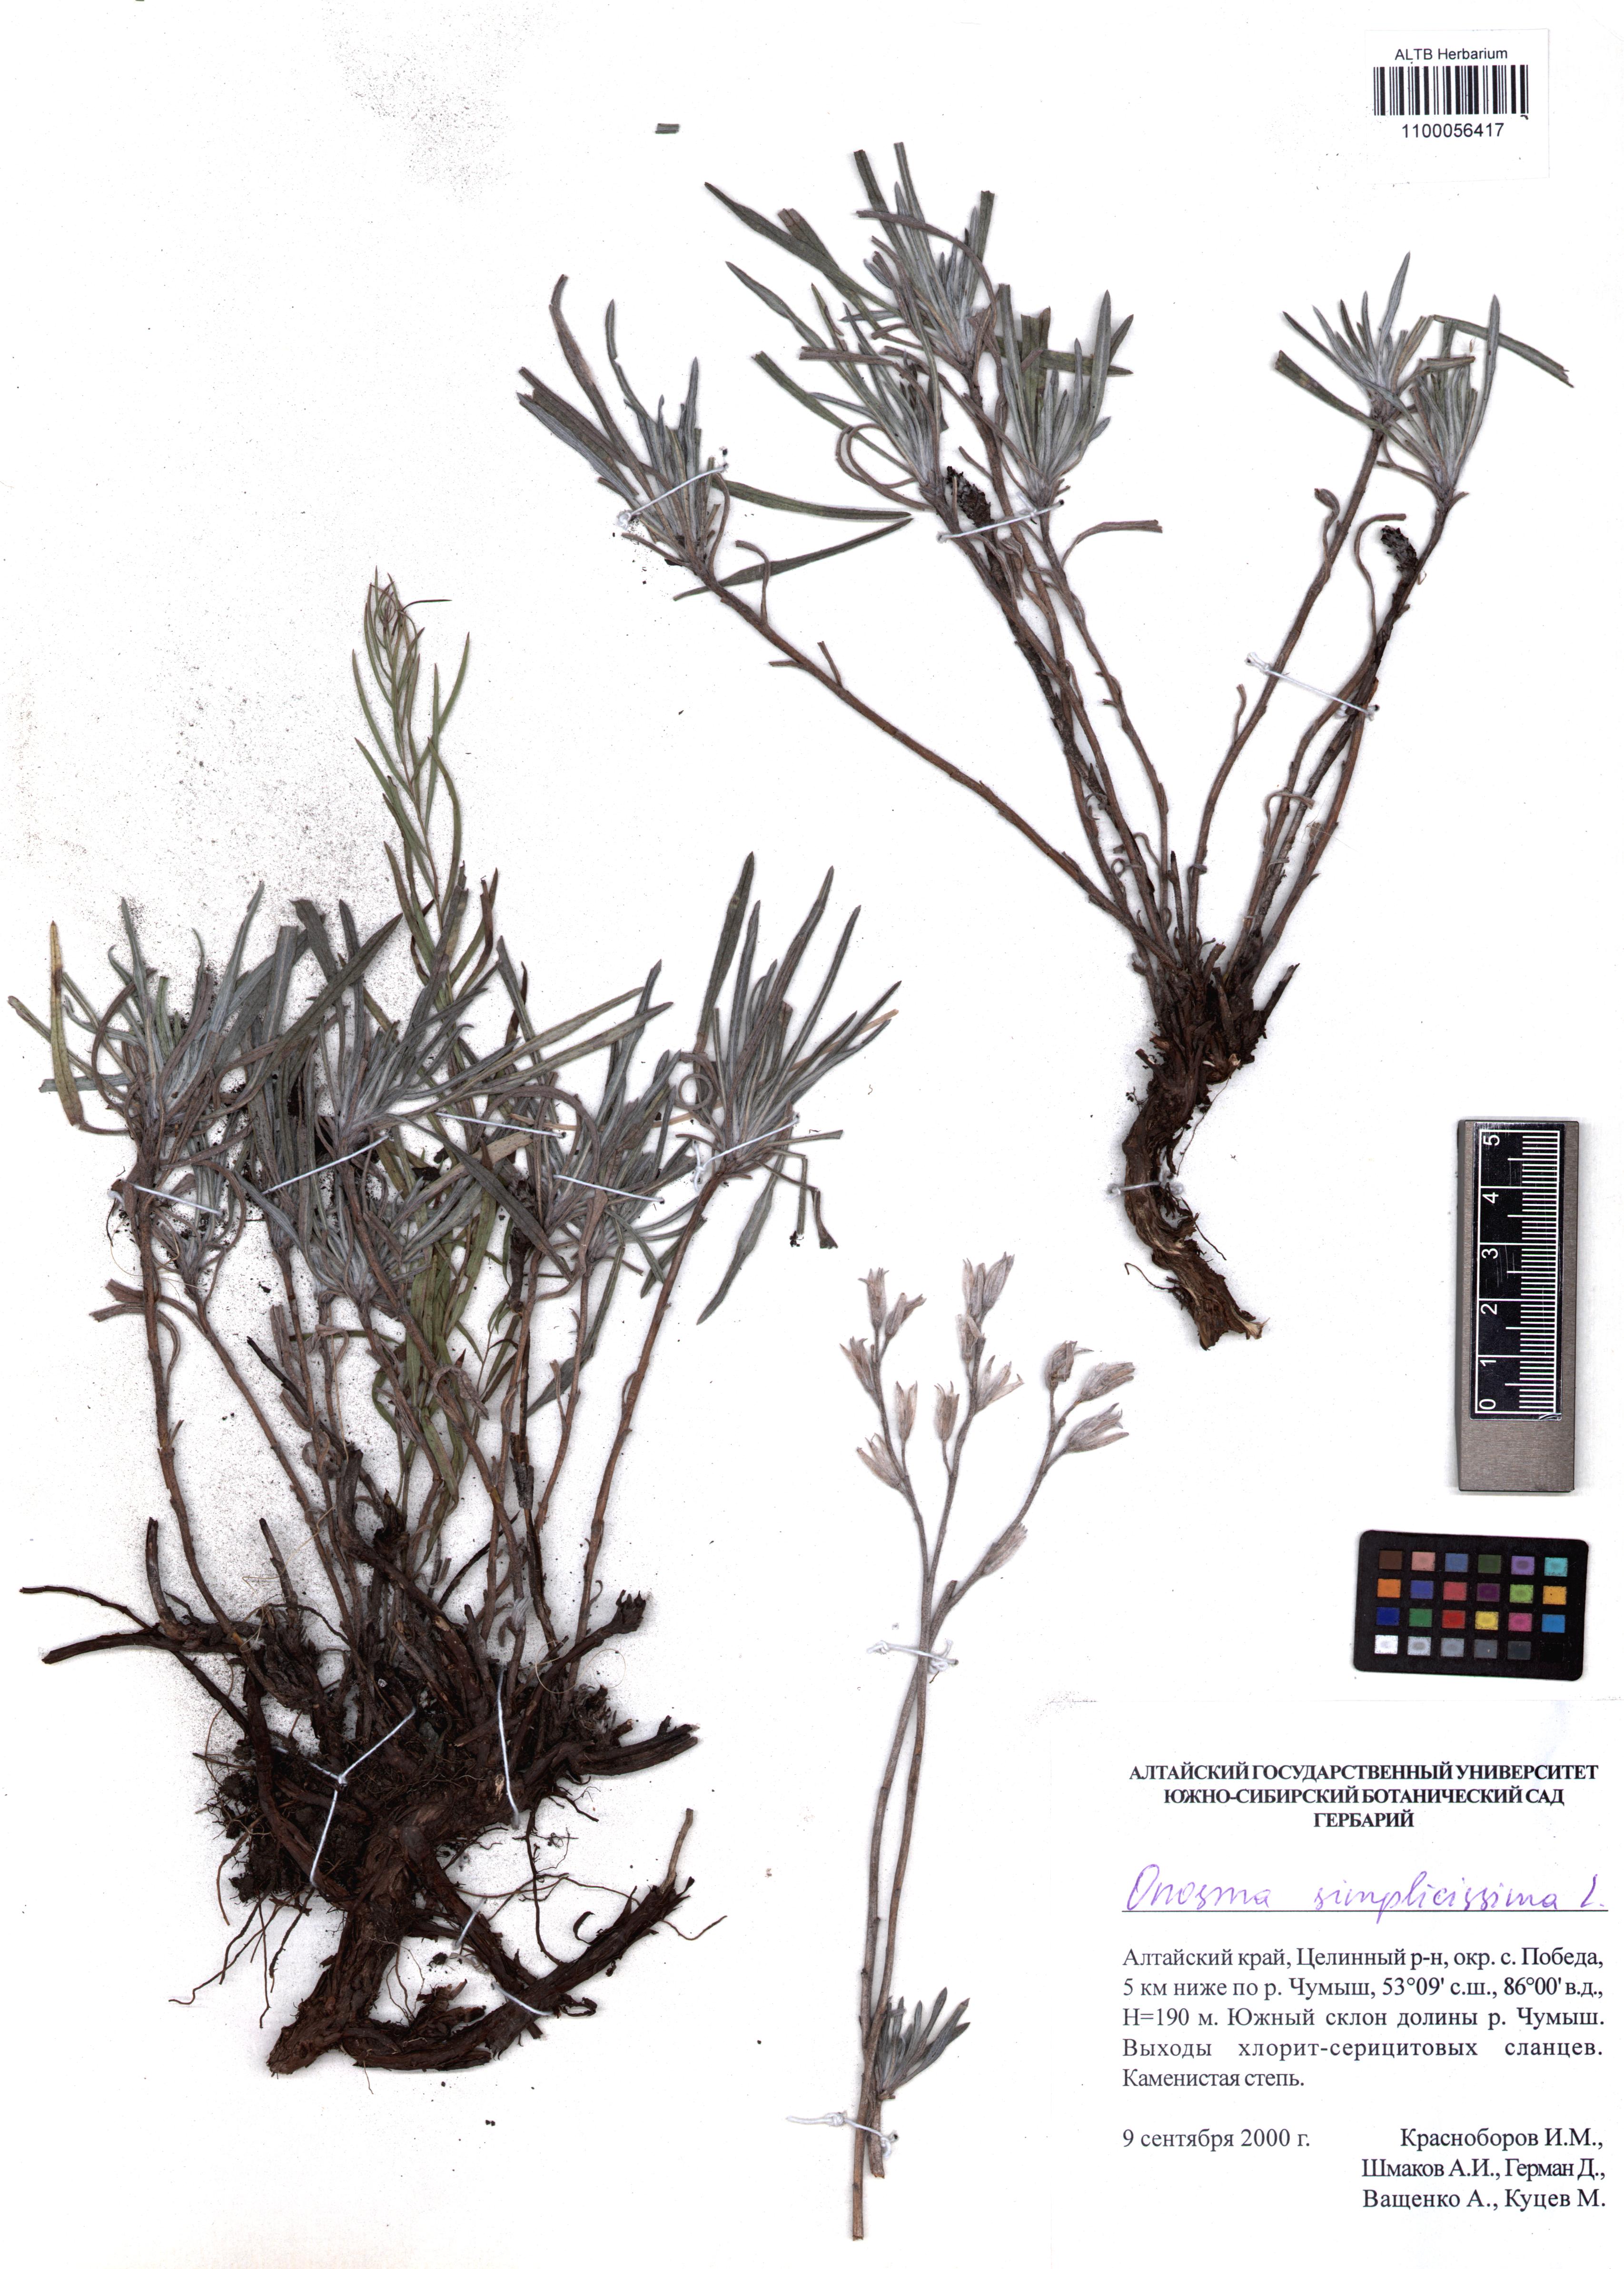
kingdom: Plantae
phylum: Tracheophyta
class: Magnoliopsida
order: Boraginales
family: Boraginaceae
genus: Onosma
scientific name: Onosma simplicissima
